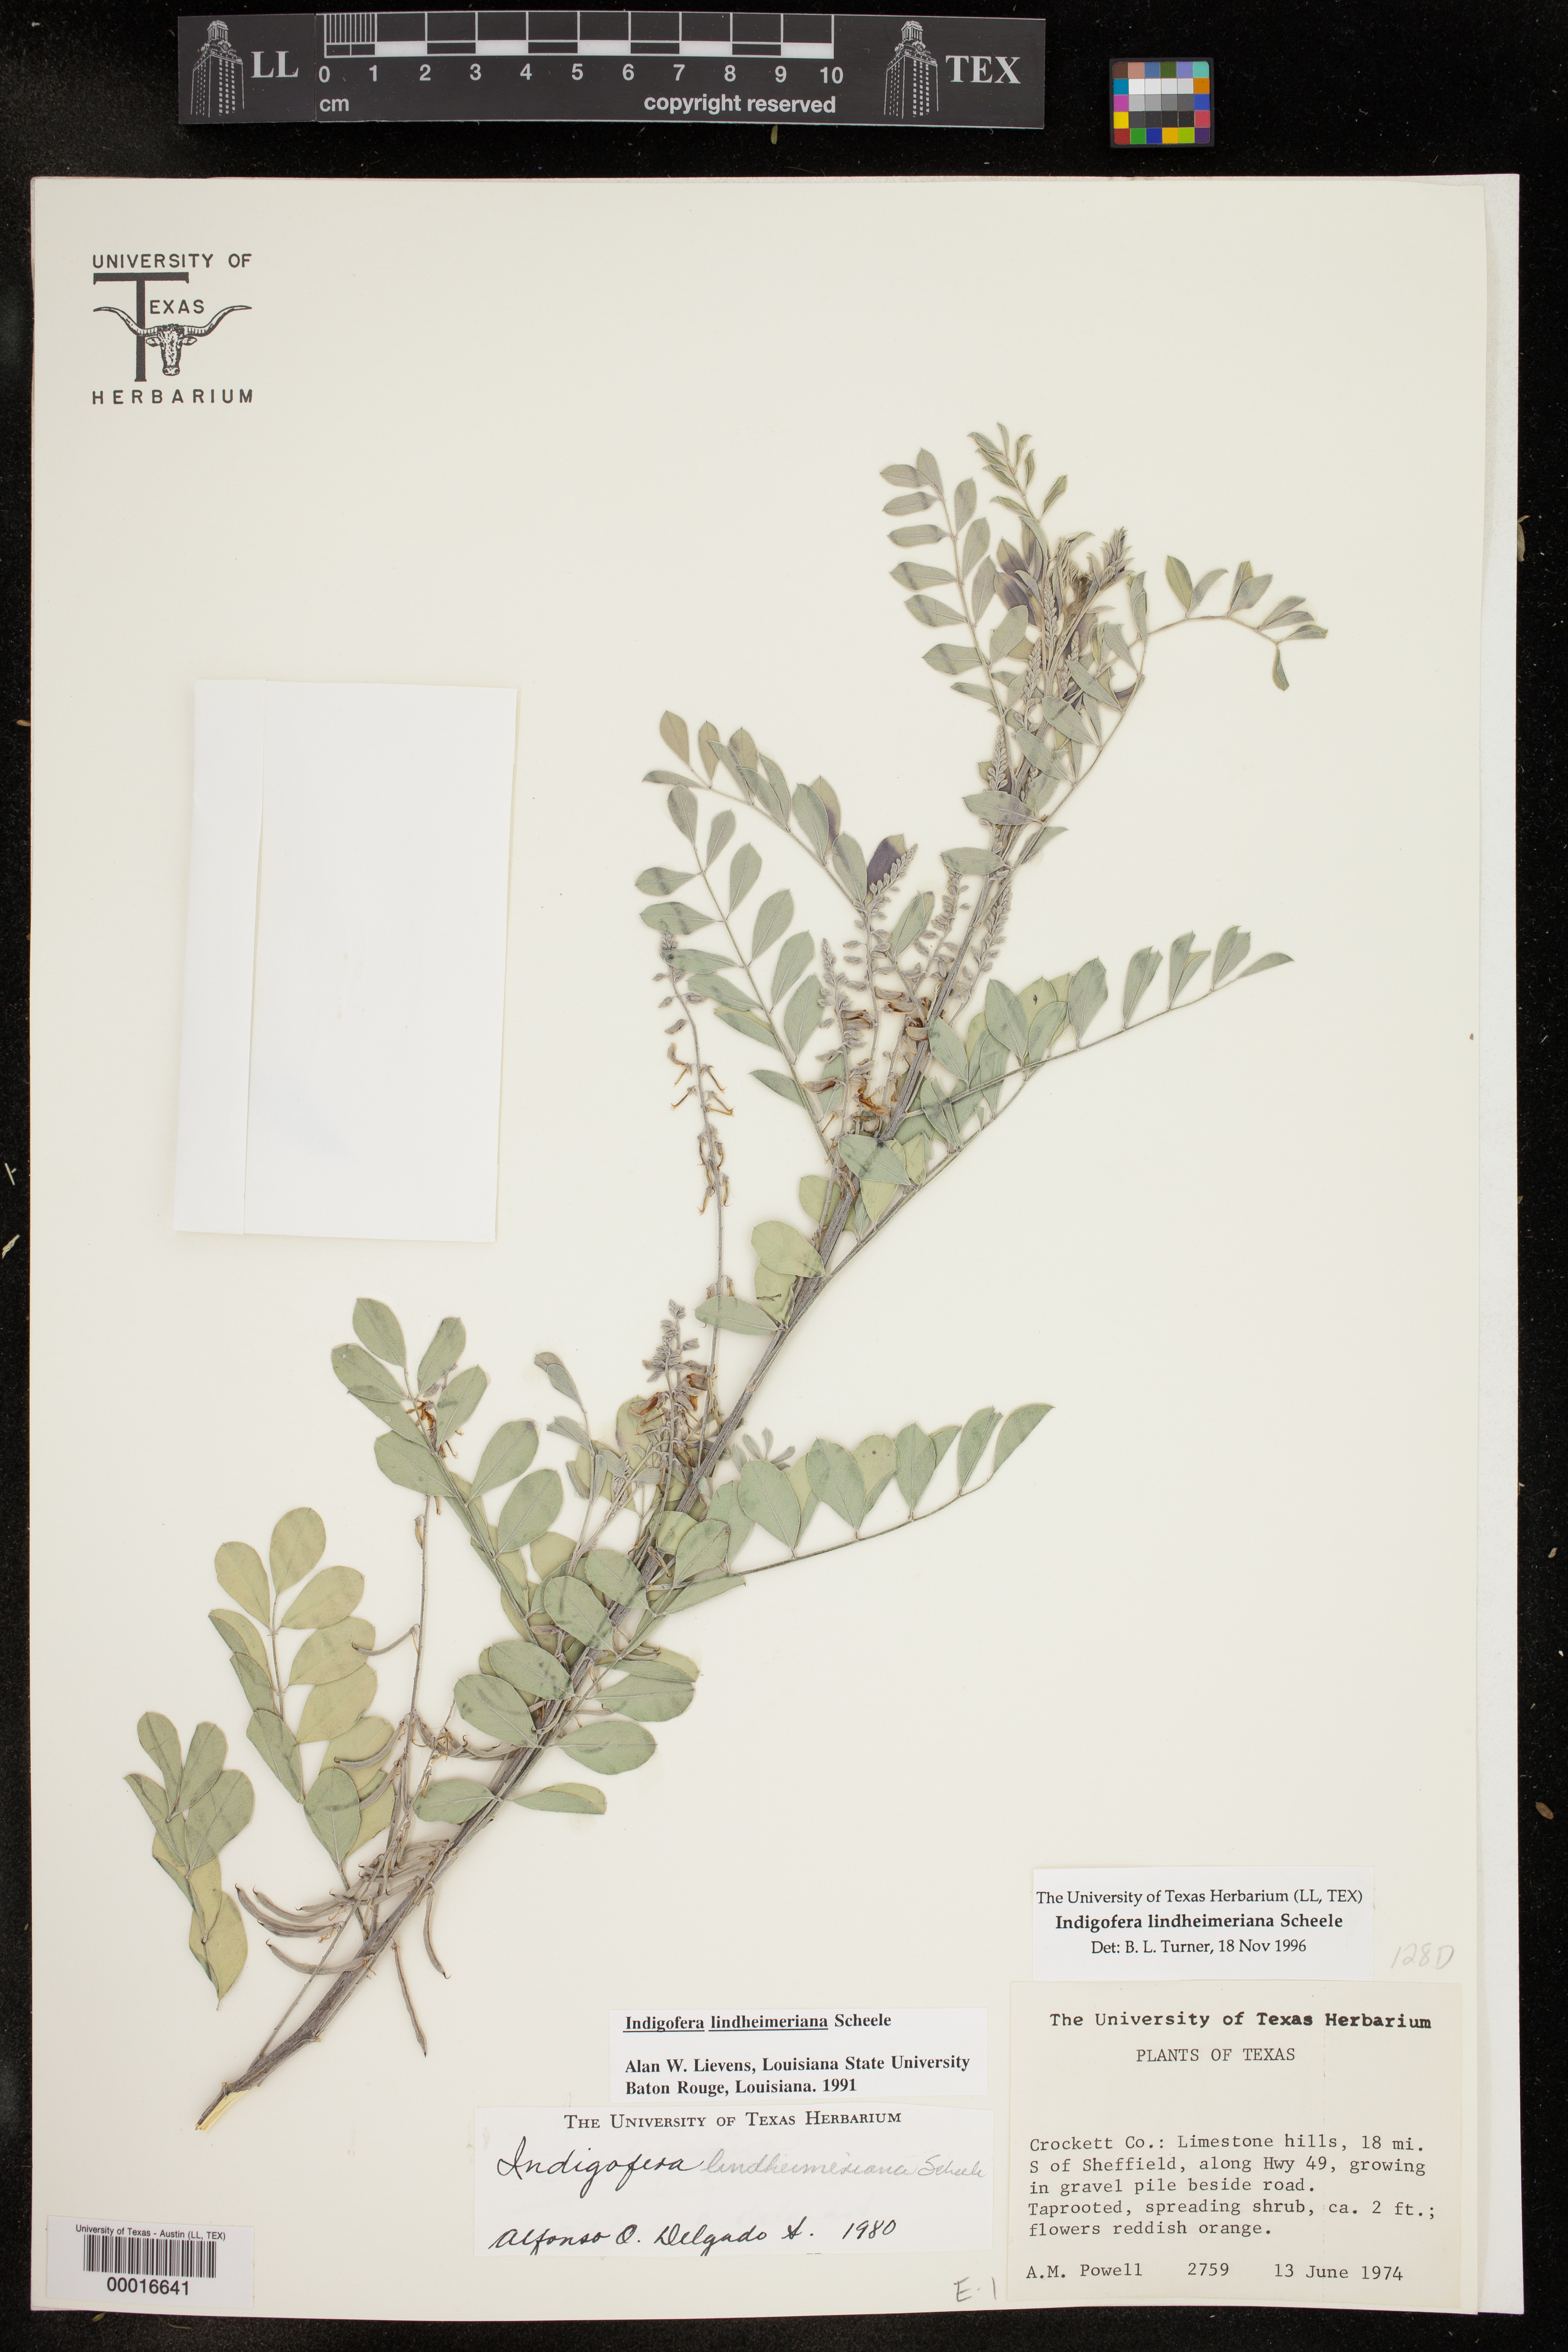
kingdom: Plantae
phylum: Tracheophyta
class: Magnoliopsida
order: Fabales
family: Fabaceae
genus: Indigofera
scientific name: Indigofera lindheimeriana
